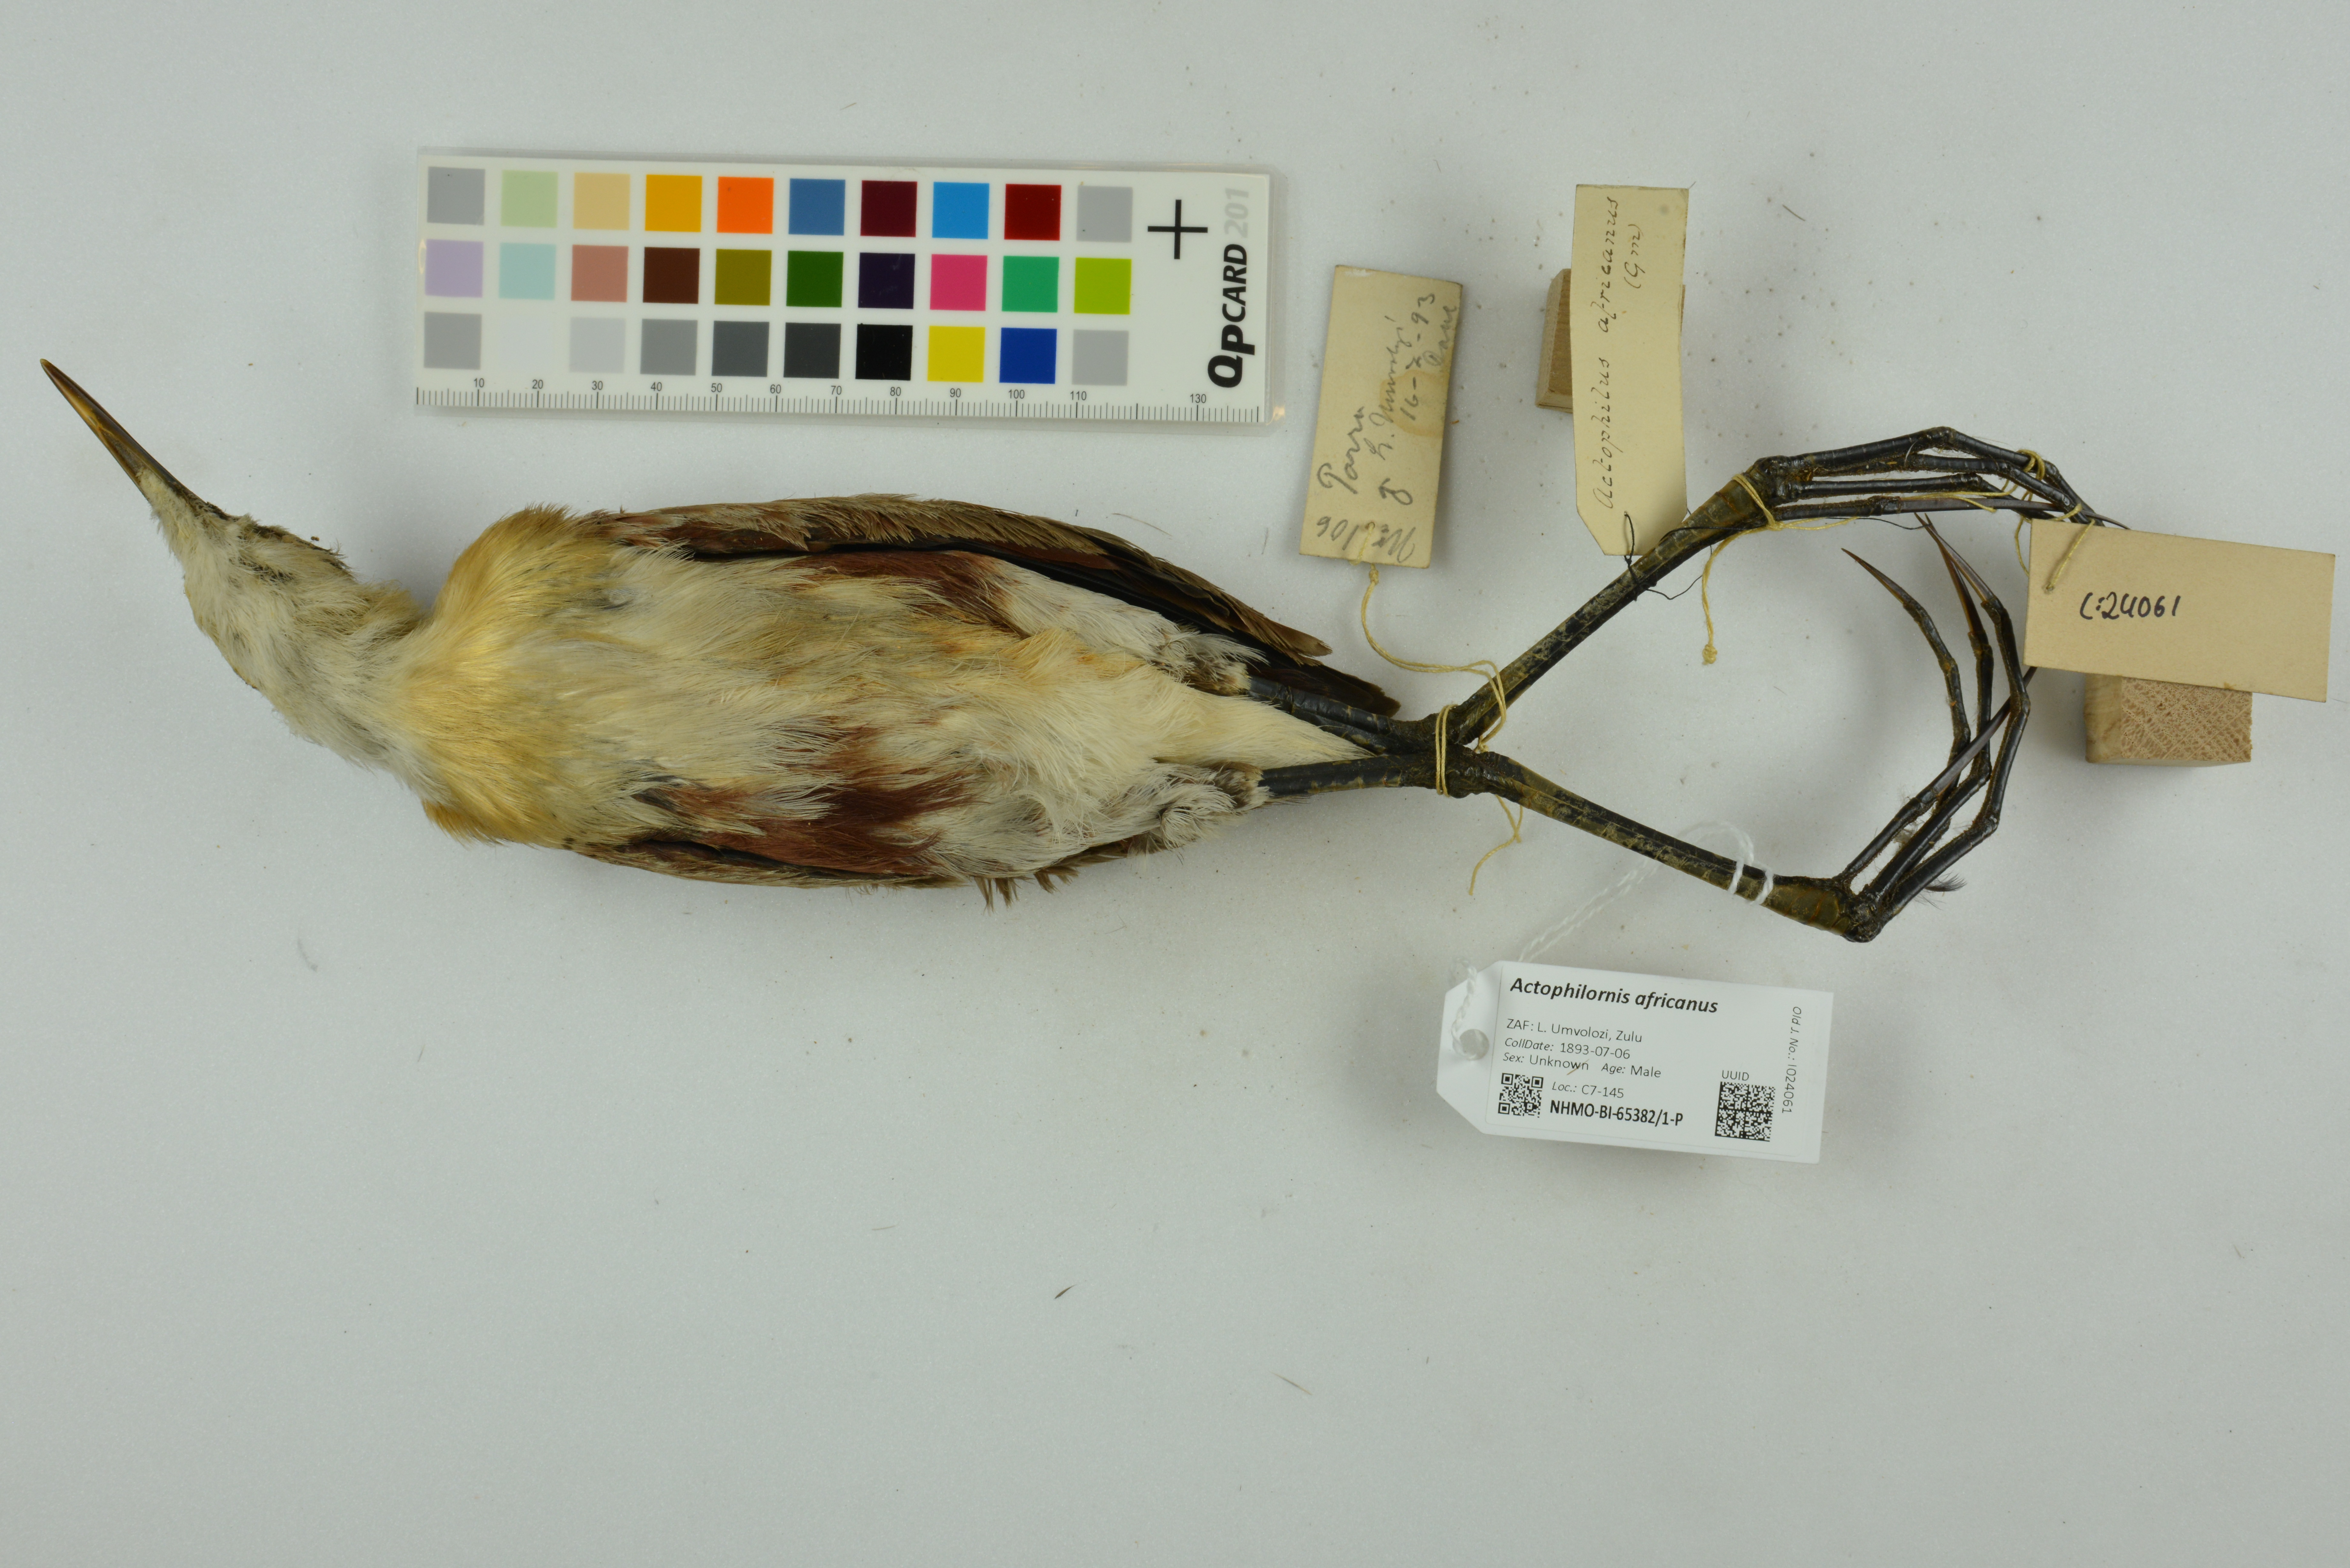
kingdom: Animalia
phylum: Chordata
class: Aves
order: Charadriiformes
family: Jacanidae
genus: Actophilornis
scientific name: Actophilornis africanus
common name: African jacana
